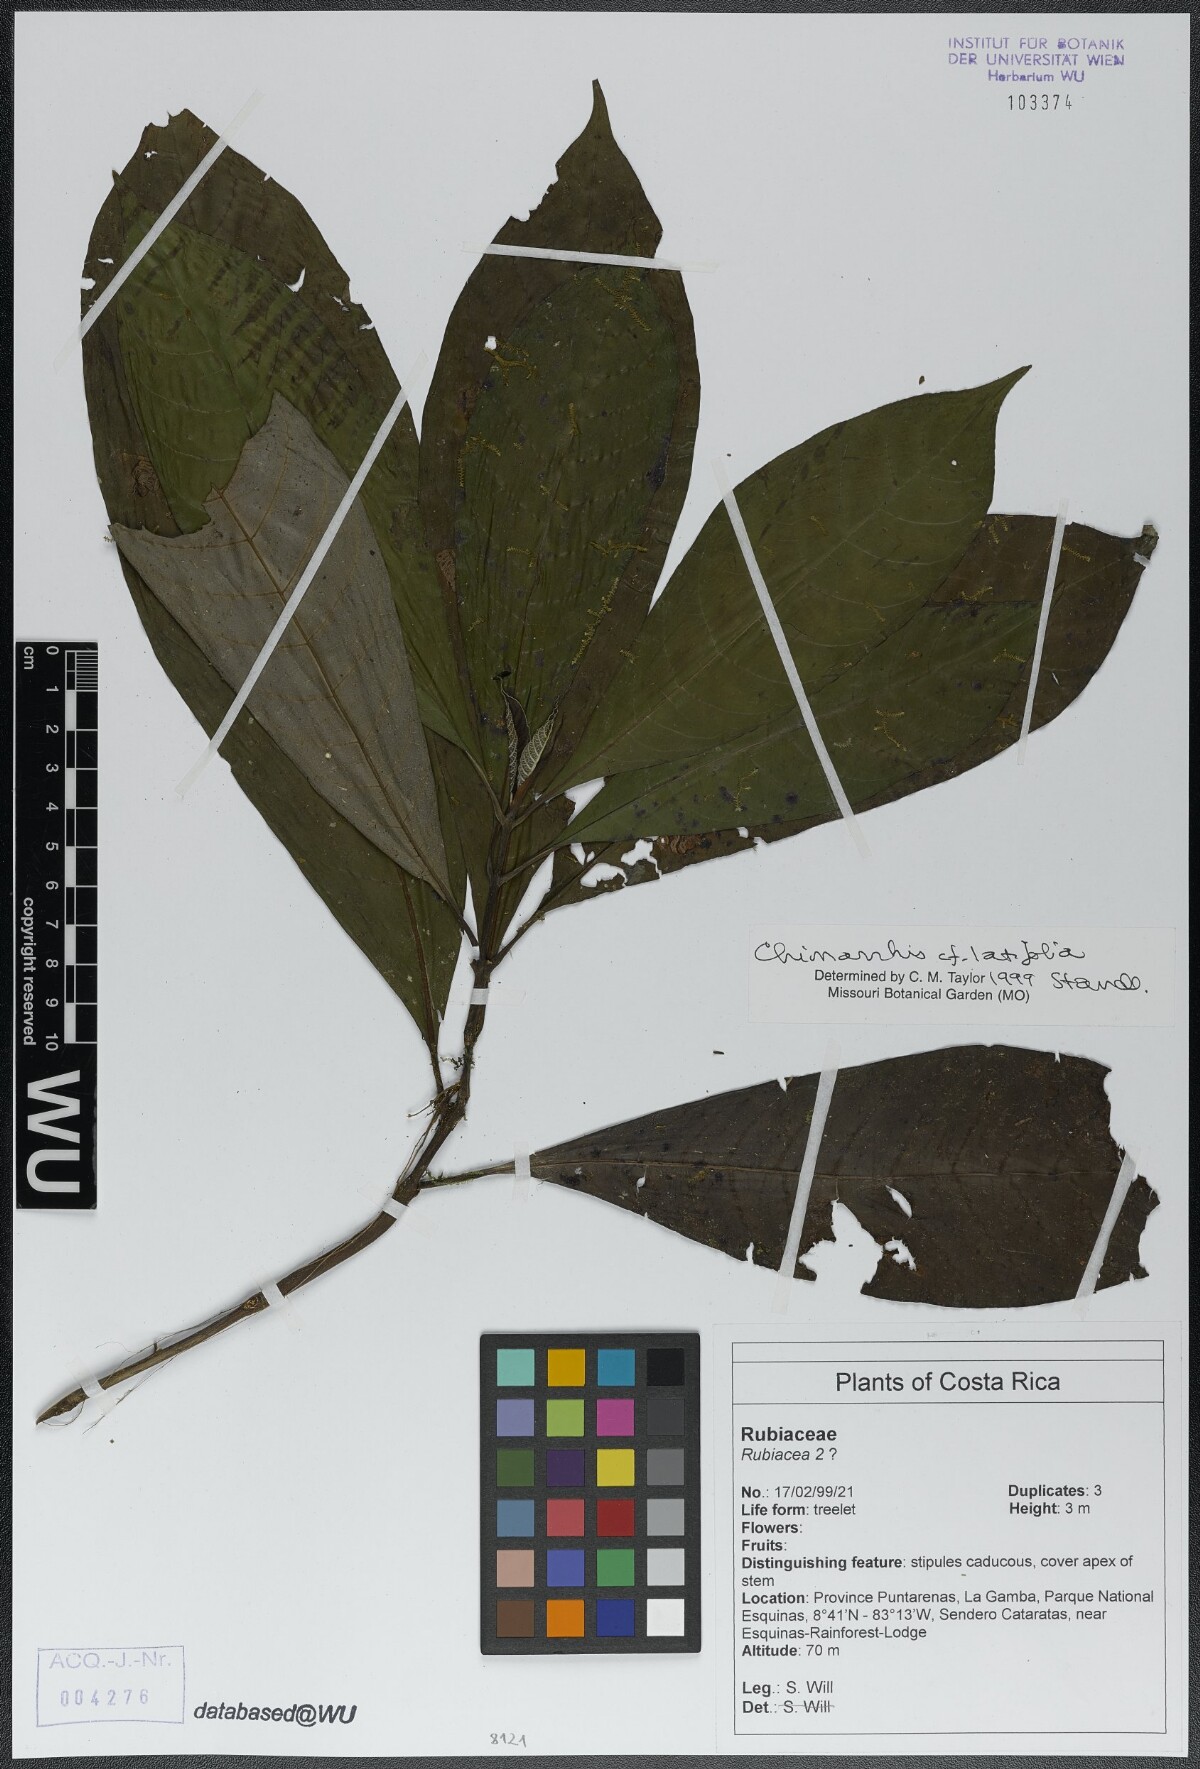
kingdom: Plantae
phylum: Tracheophyta
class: Magnoliopsida
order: Gentianales
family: Rubiaceae
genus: Chimarrhis
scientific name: Chimarrhis latifolia
